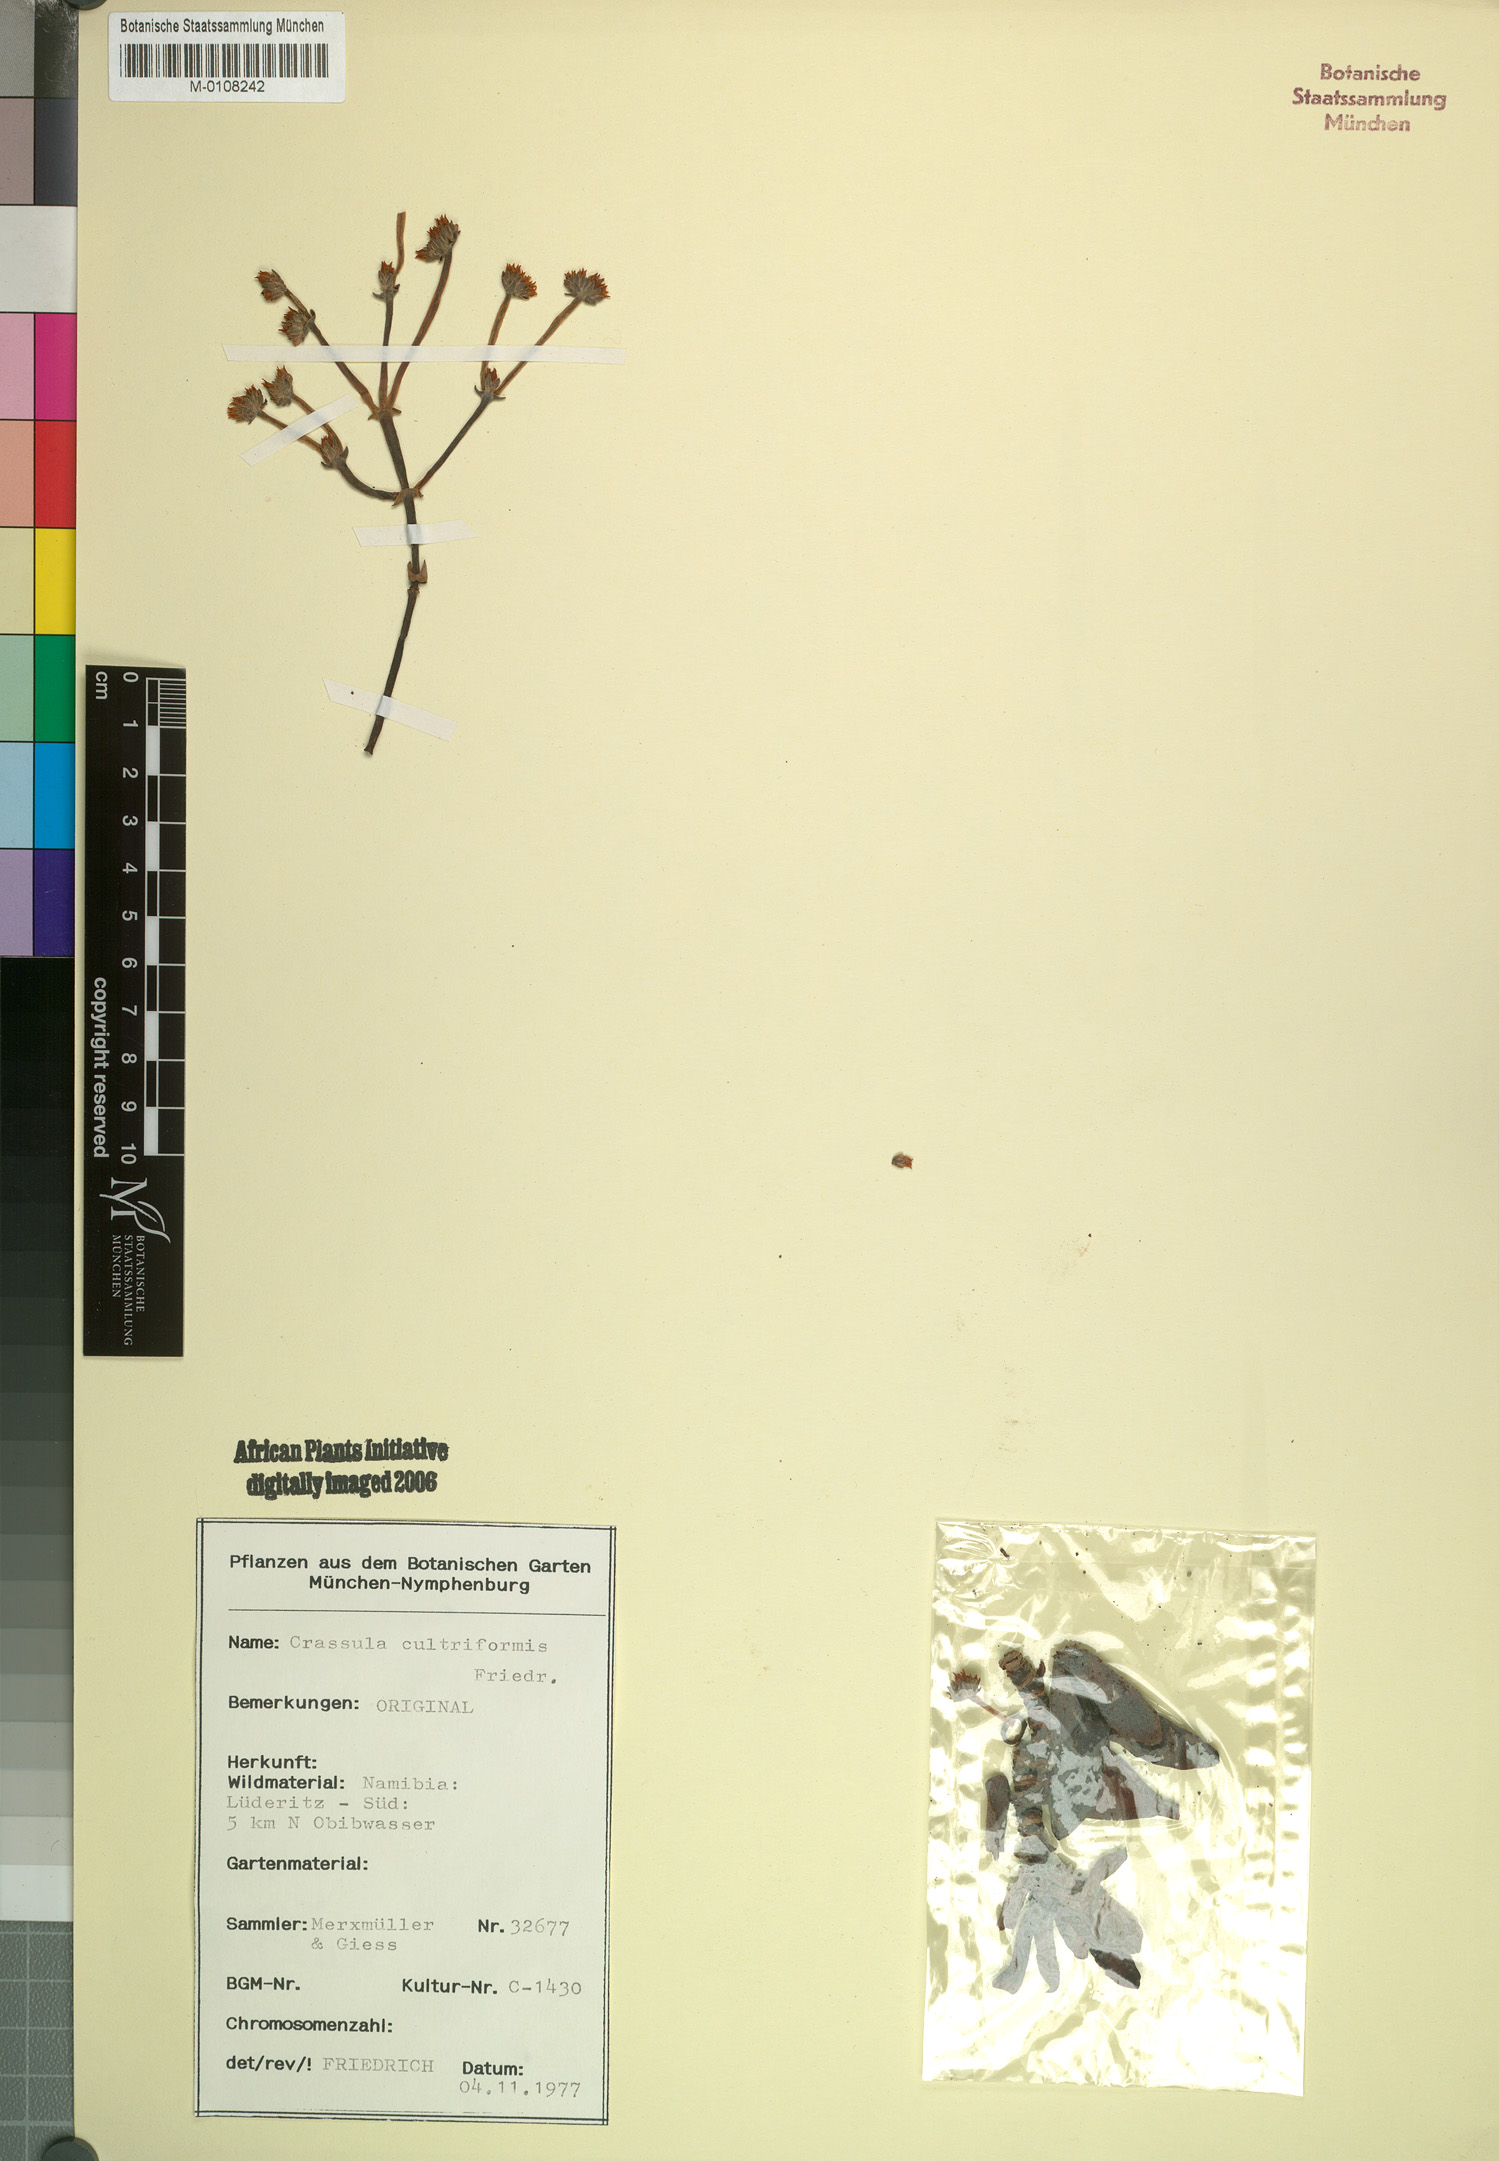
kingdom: Plantae
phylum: Tracheophyta
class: Magnoliopsida
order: Saxifragales
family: Crassulaceae
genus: Crassula
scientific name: Crassula atropurpurea
